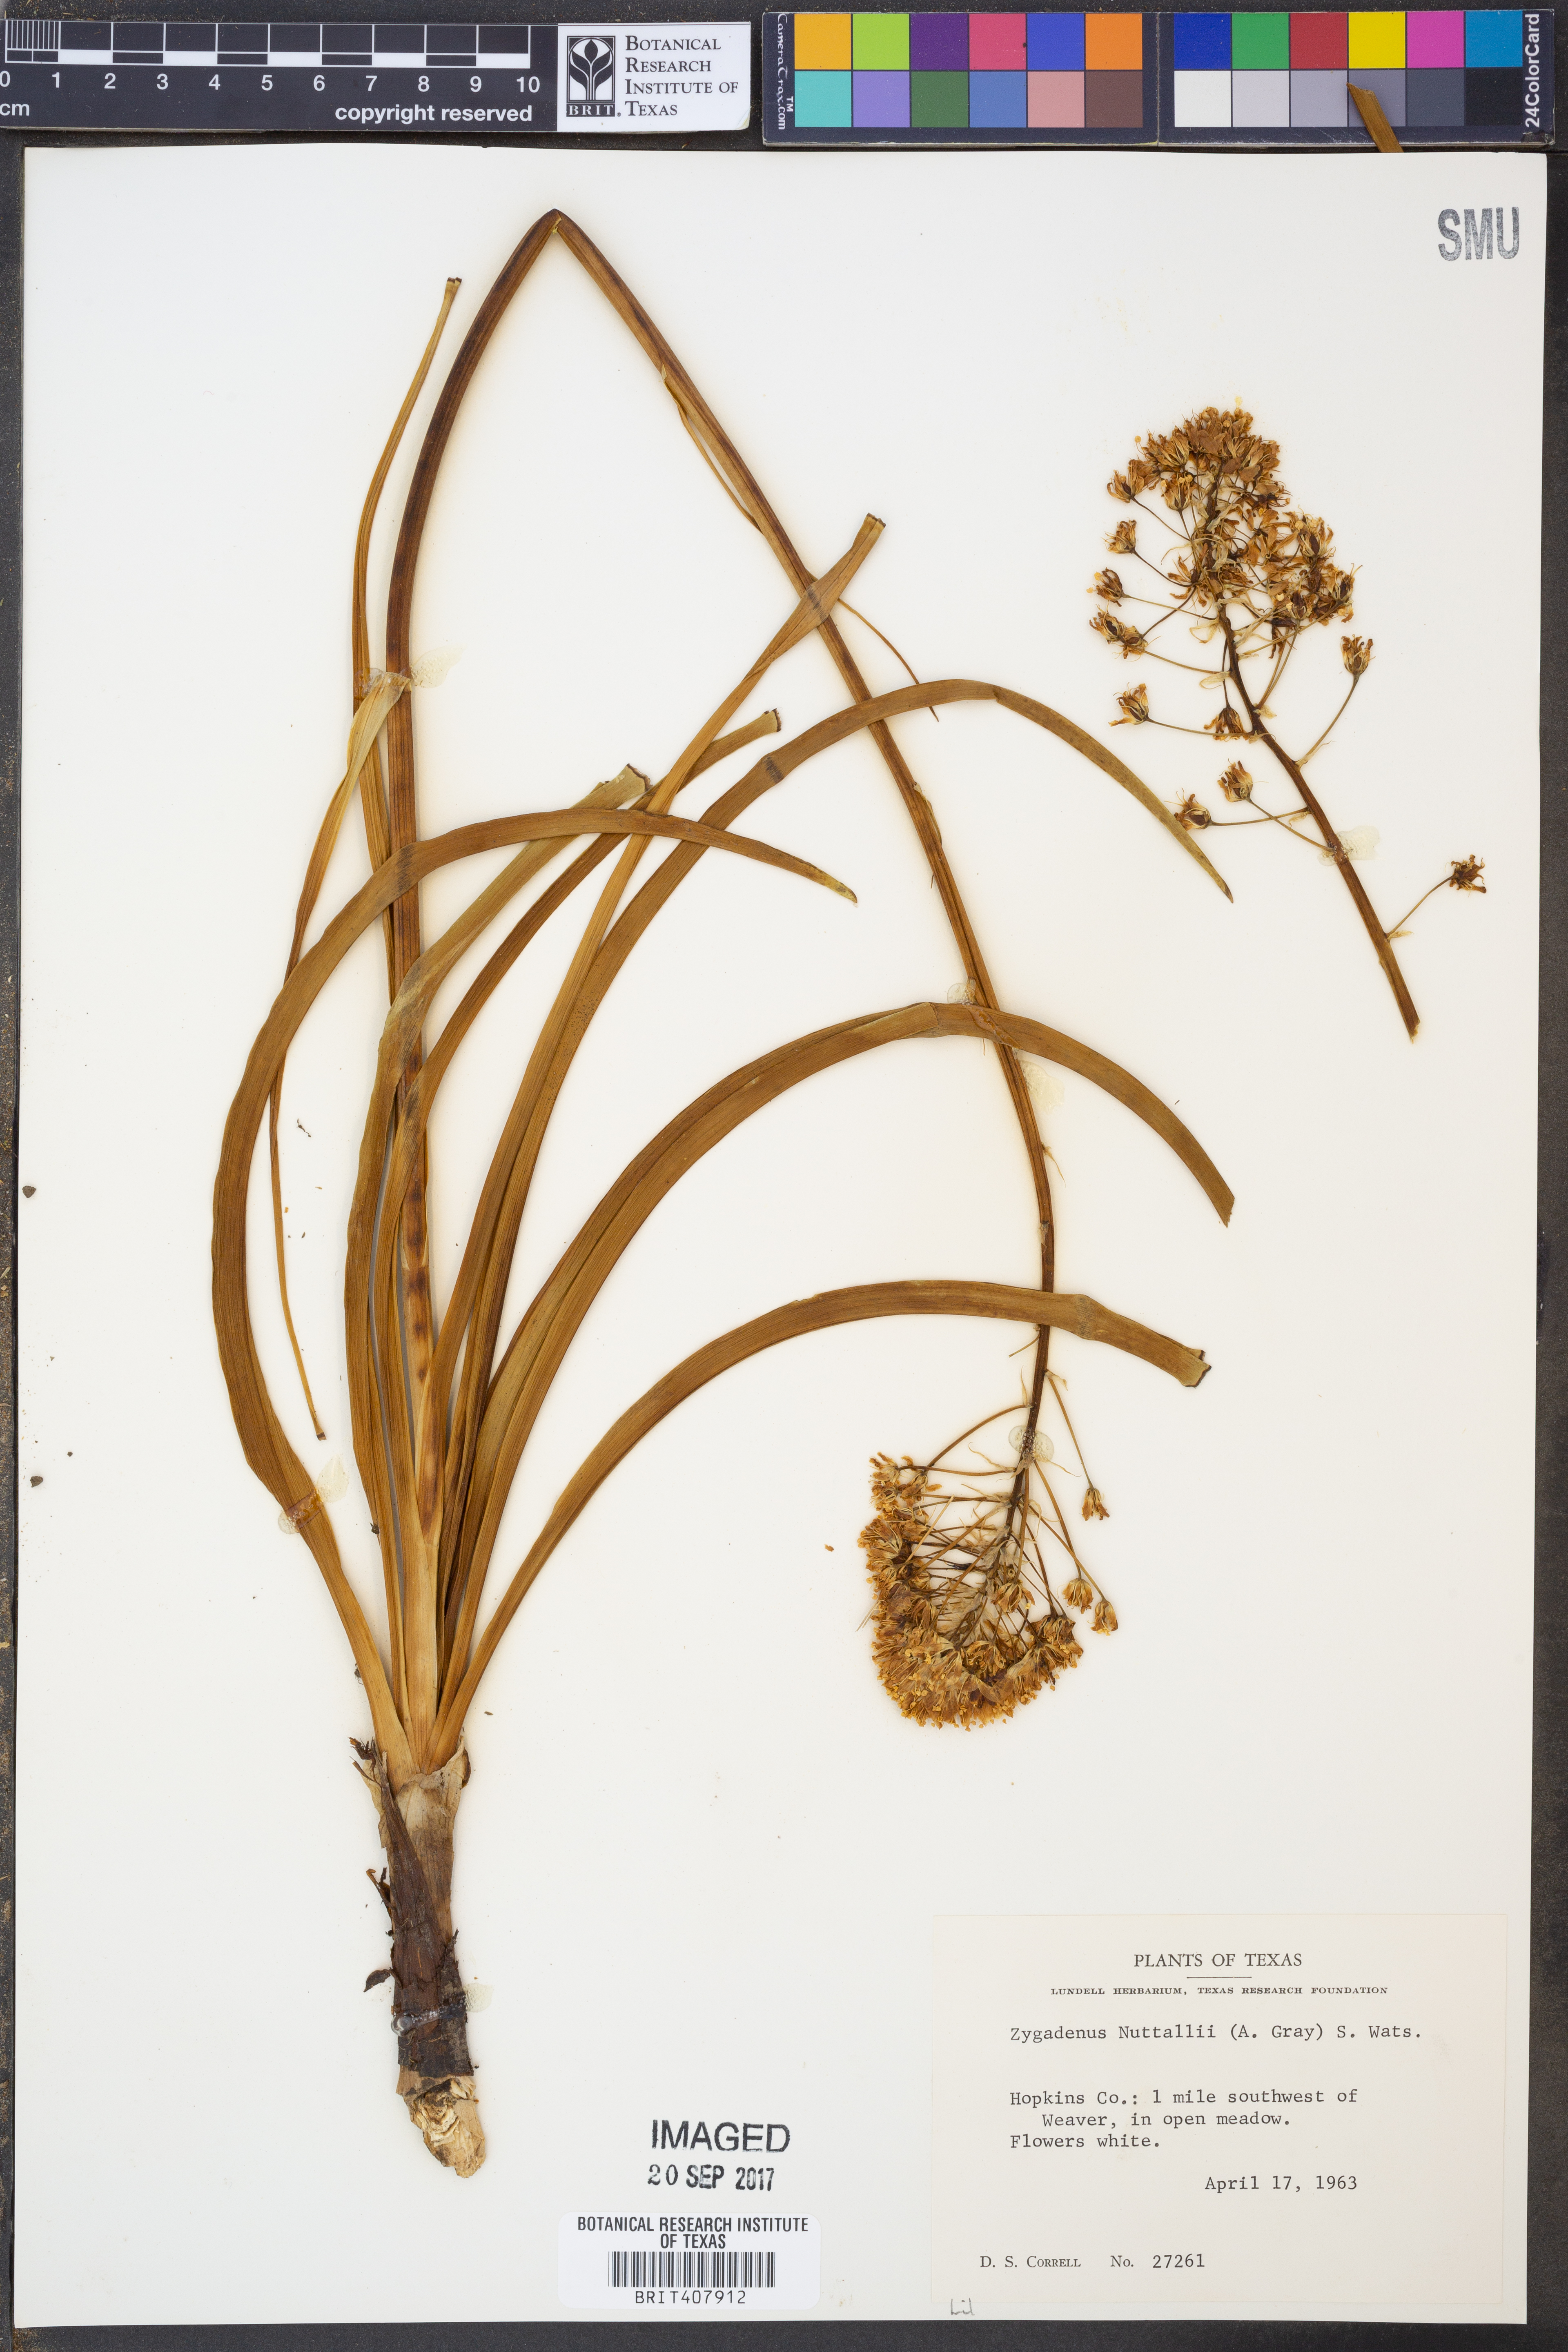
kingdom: Plantae
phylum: Tracheophyta
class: Liliopsida
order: Liliales
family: Melanthiaceae
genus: Toxicoscordion
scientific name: Toxicoscordion nuttallii
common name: Poison sego
